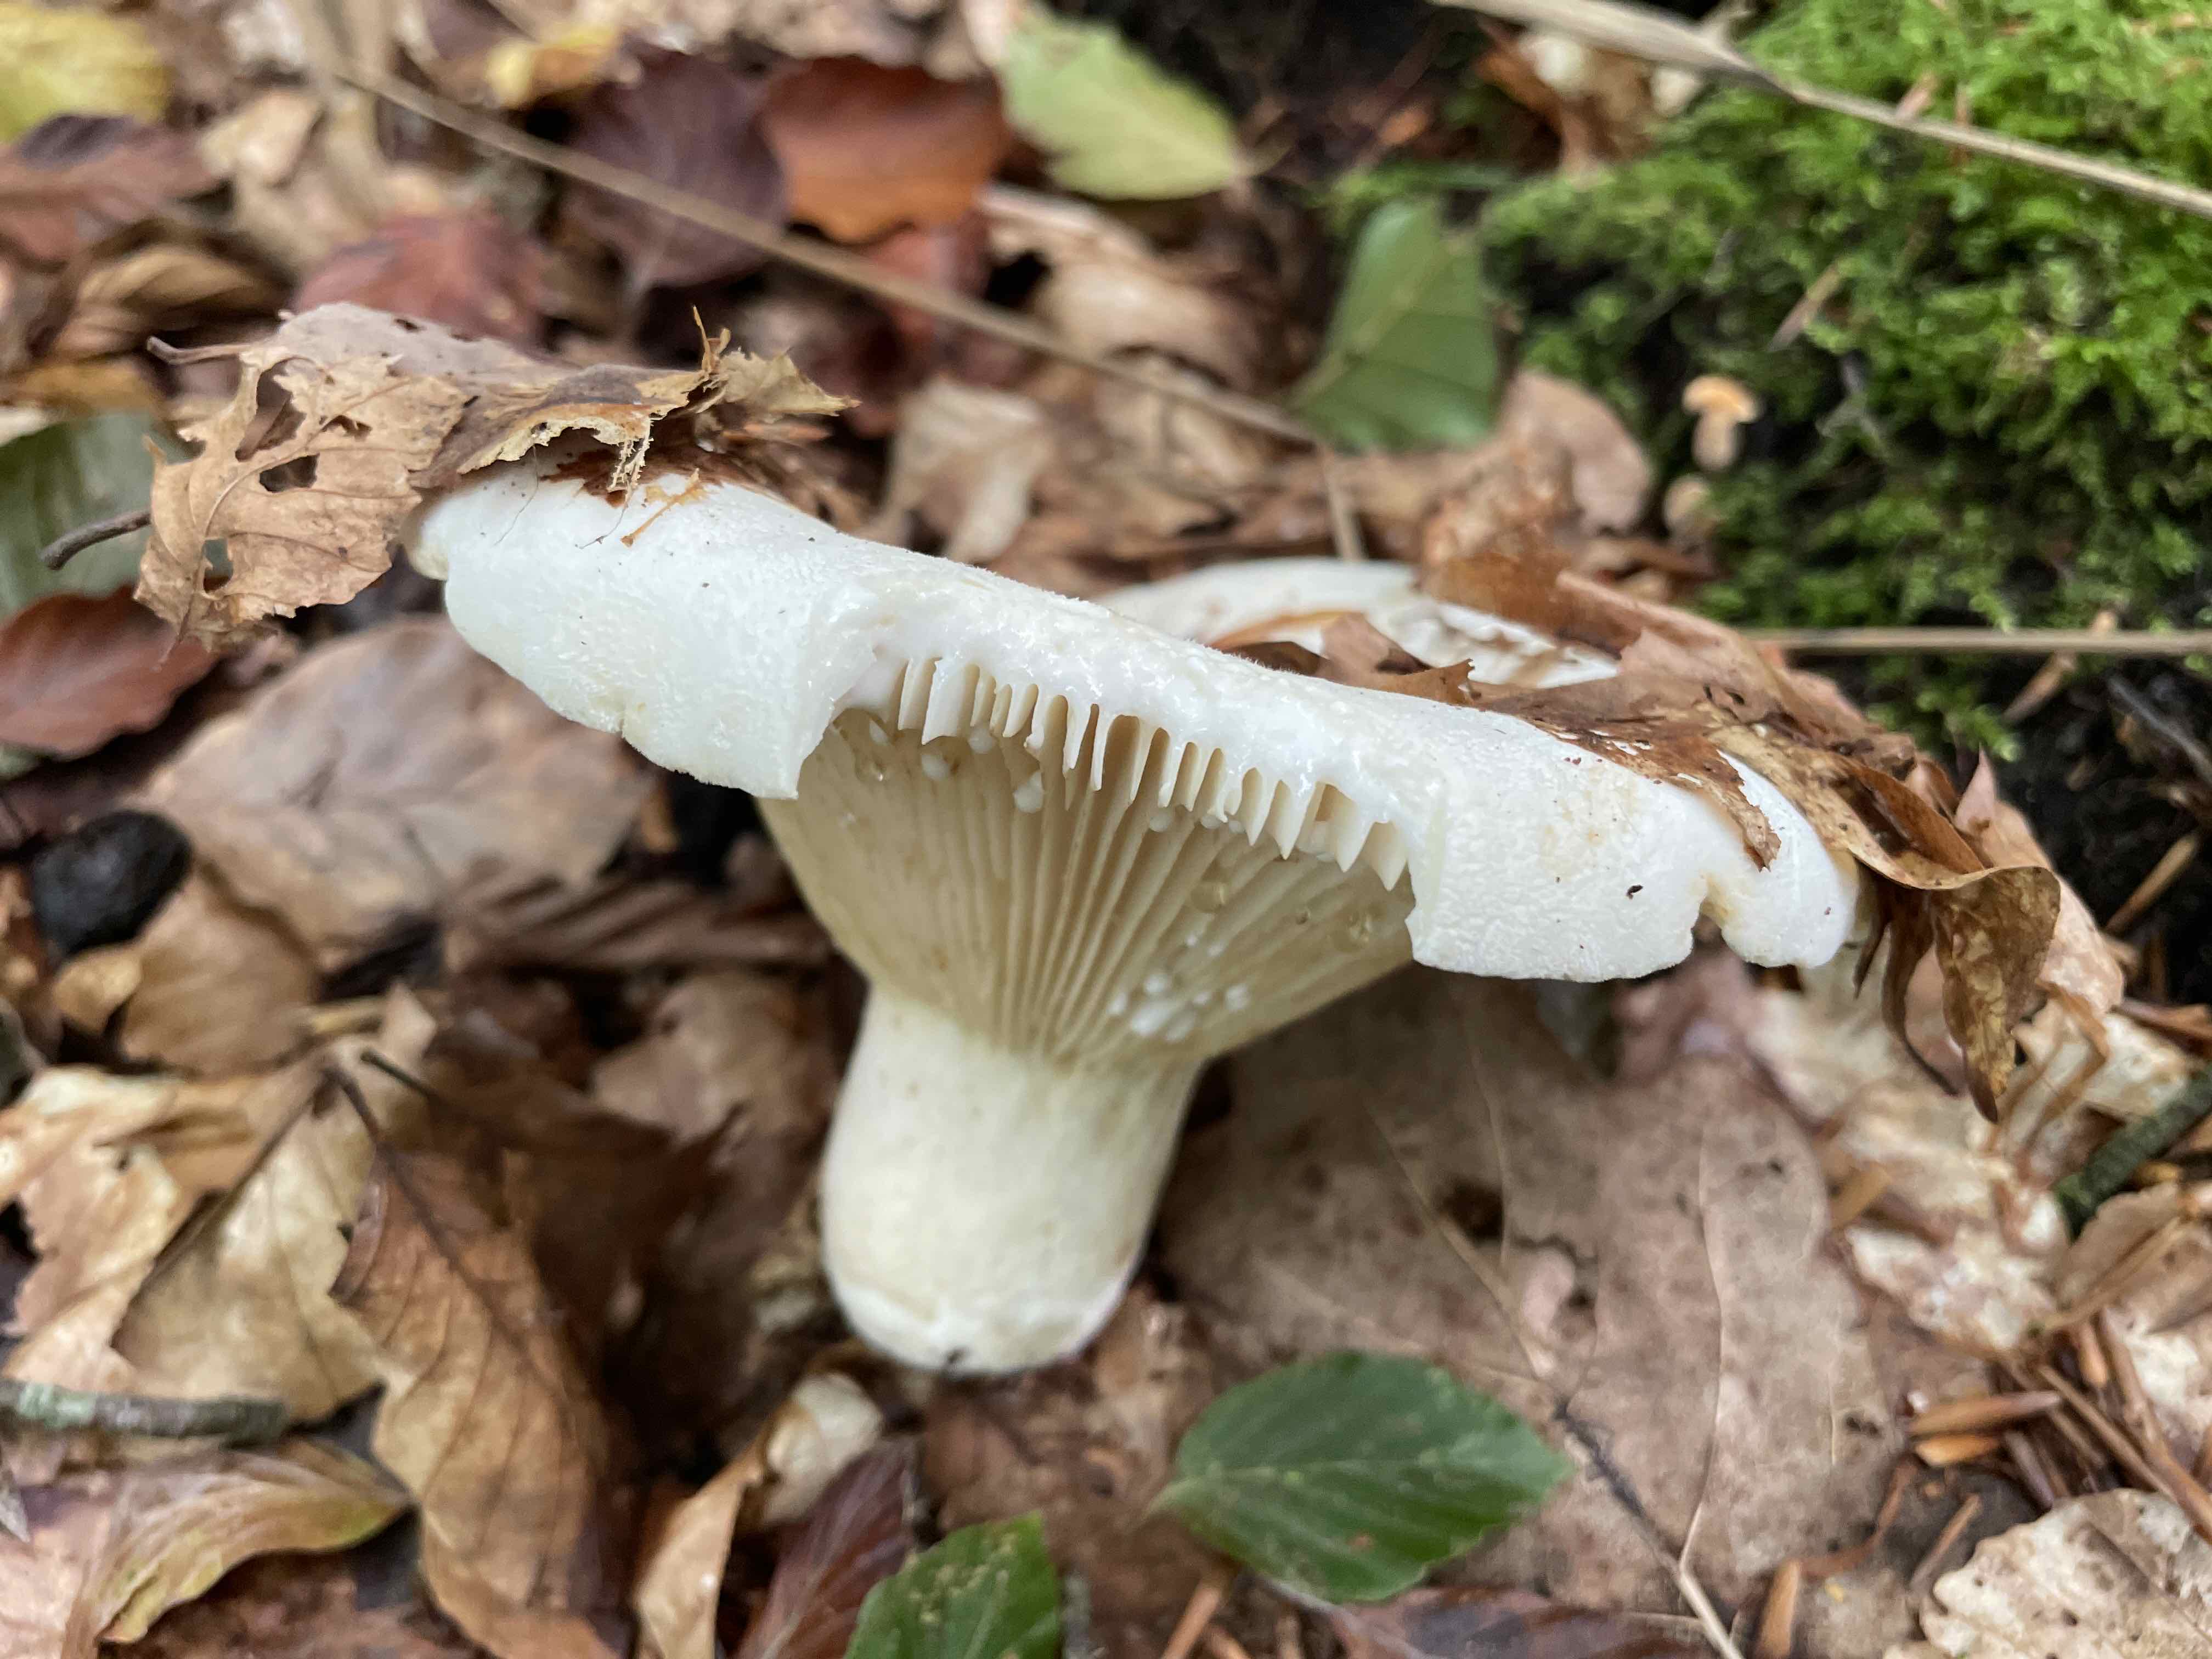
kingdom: Fungi
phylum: Basidiomycota
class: Agaricomycetes
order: Russulales
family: Russulaceae
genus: Lactifluus
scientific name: Lactifluus vellereus
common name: hvidfiltet mælkehat
